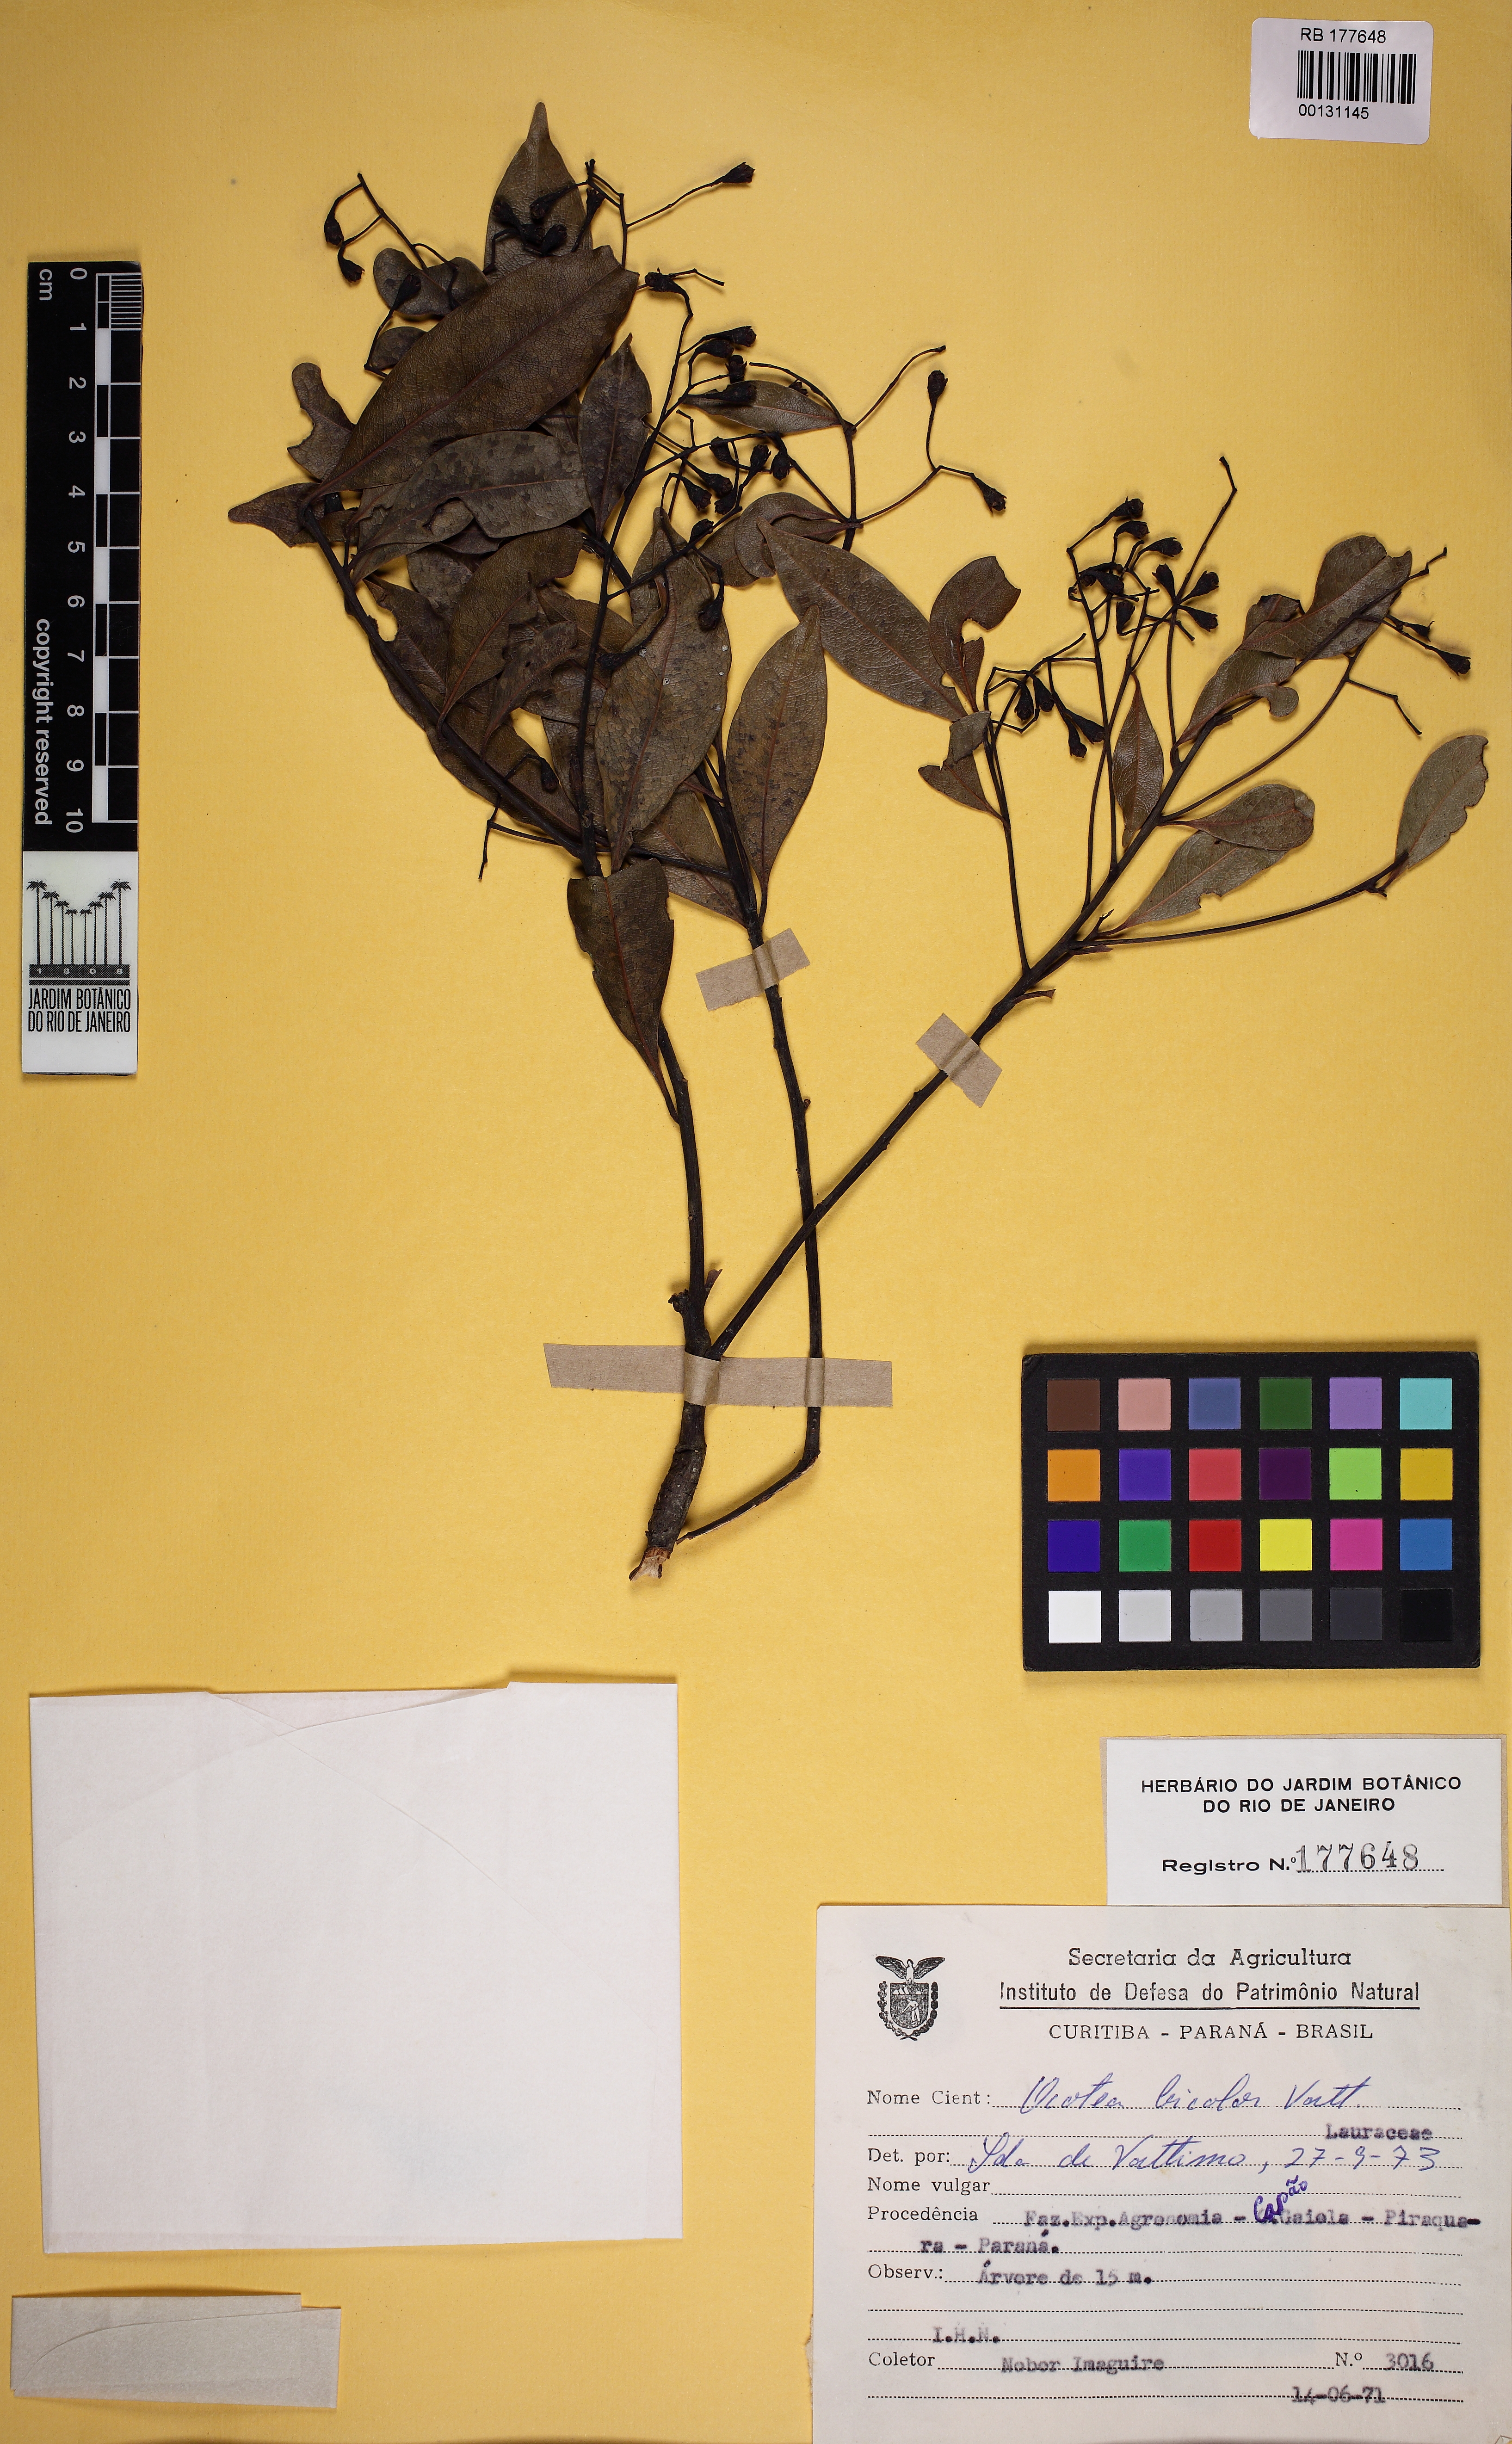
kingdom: Plantae
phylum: Tracheophyta
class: Magnoliopsida
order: Laurales
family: Lauraceae
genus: Ocotea
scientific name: Ocotea bicolor
